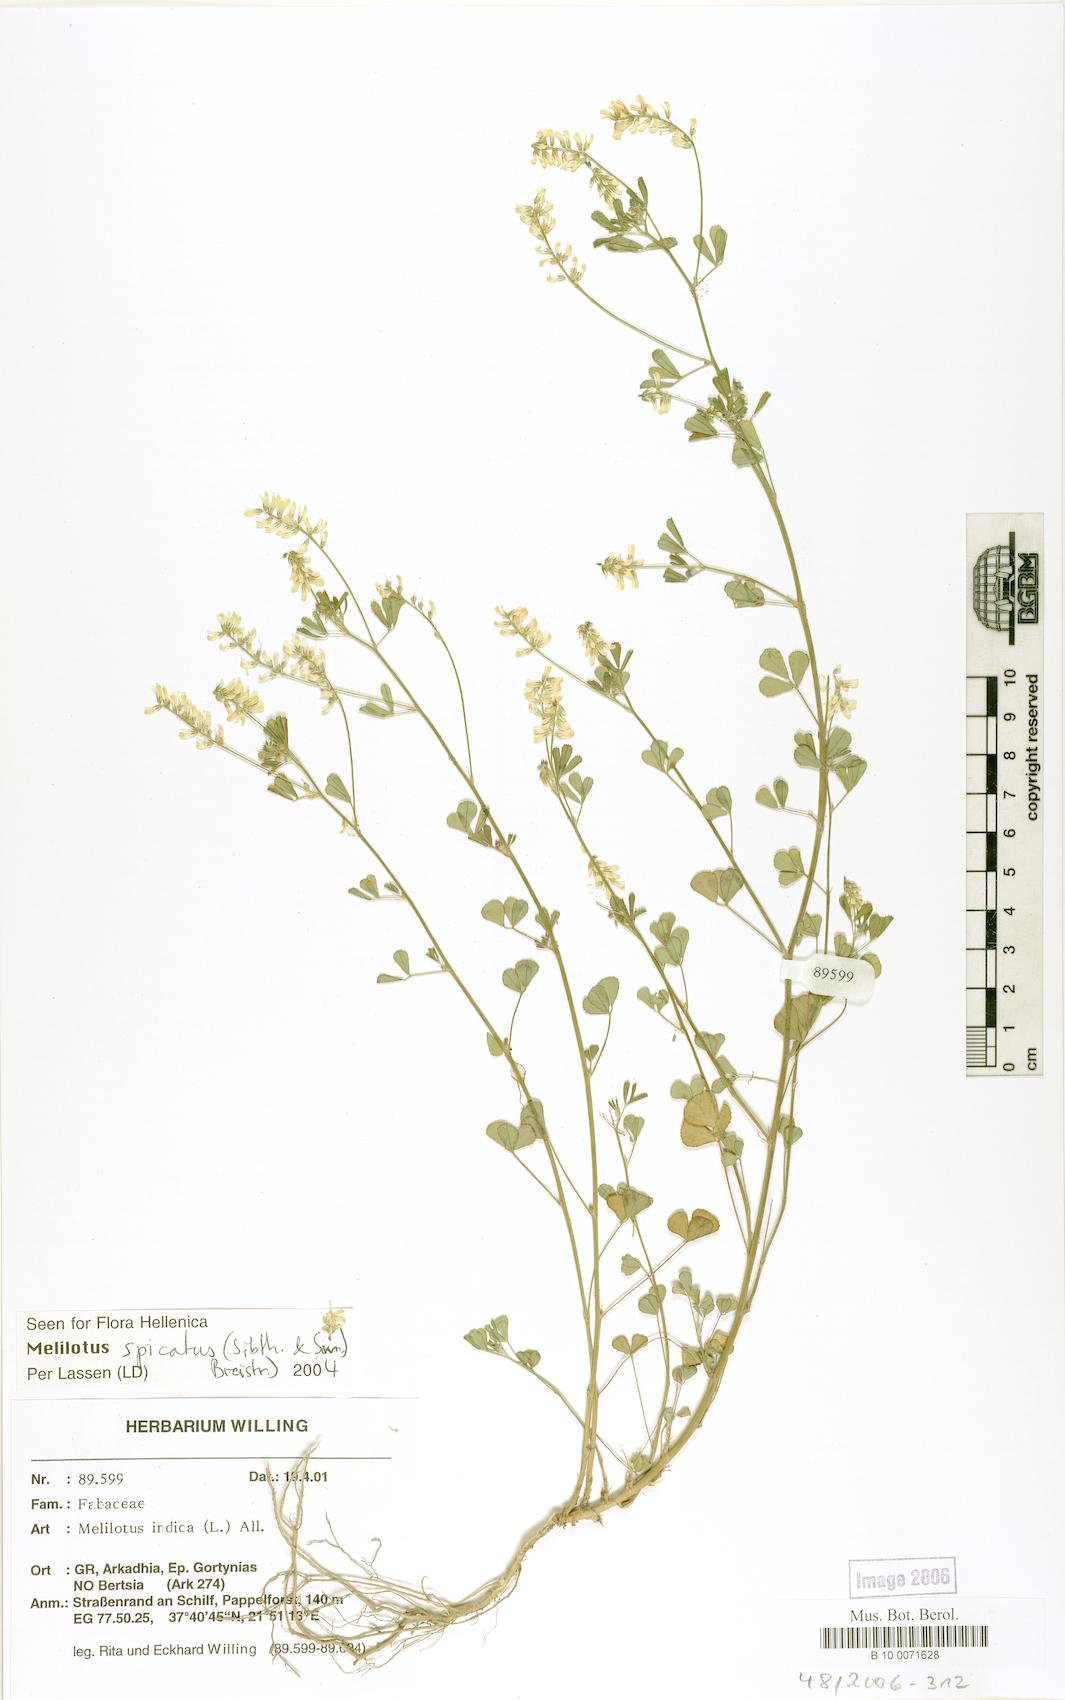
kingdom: Plantae
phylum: Tracheophyta
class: Magnoliopsida
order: Fabales
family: Fabaceae
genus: Melilotus
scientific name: Melilotus indicus
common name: Small melilot
